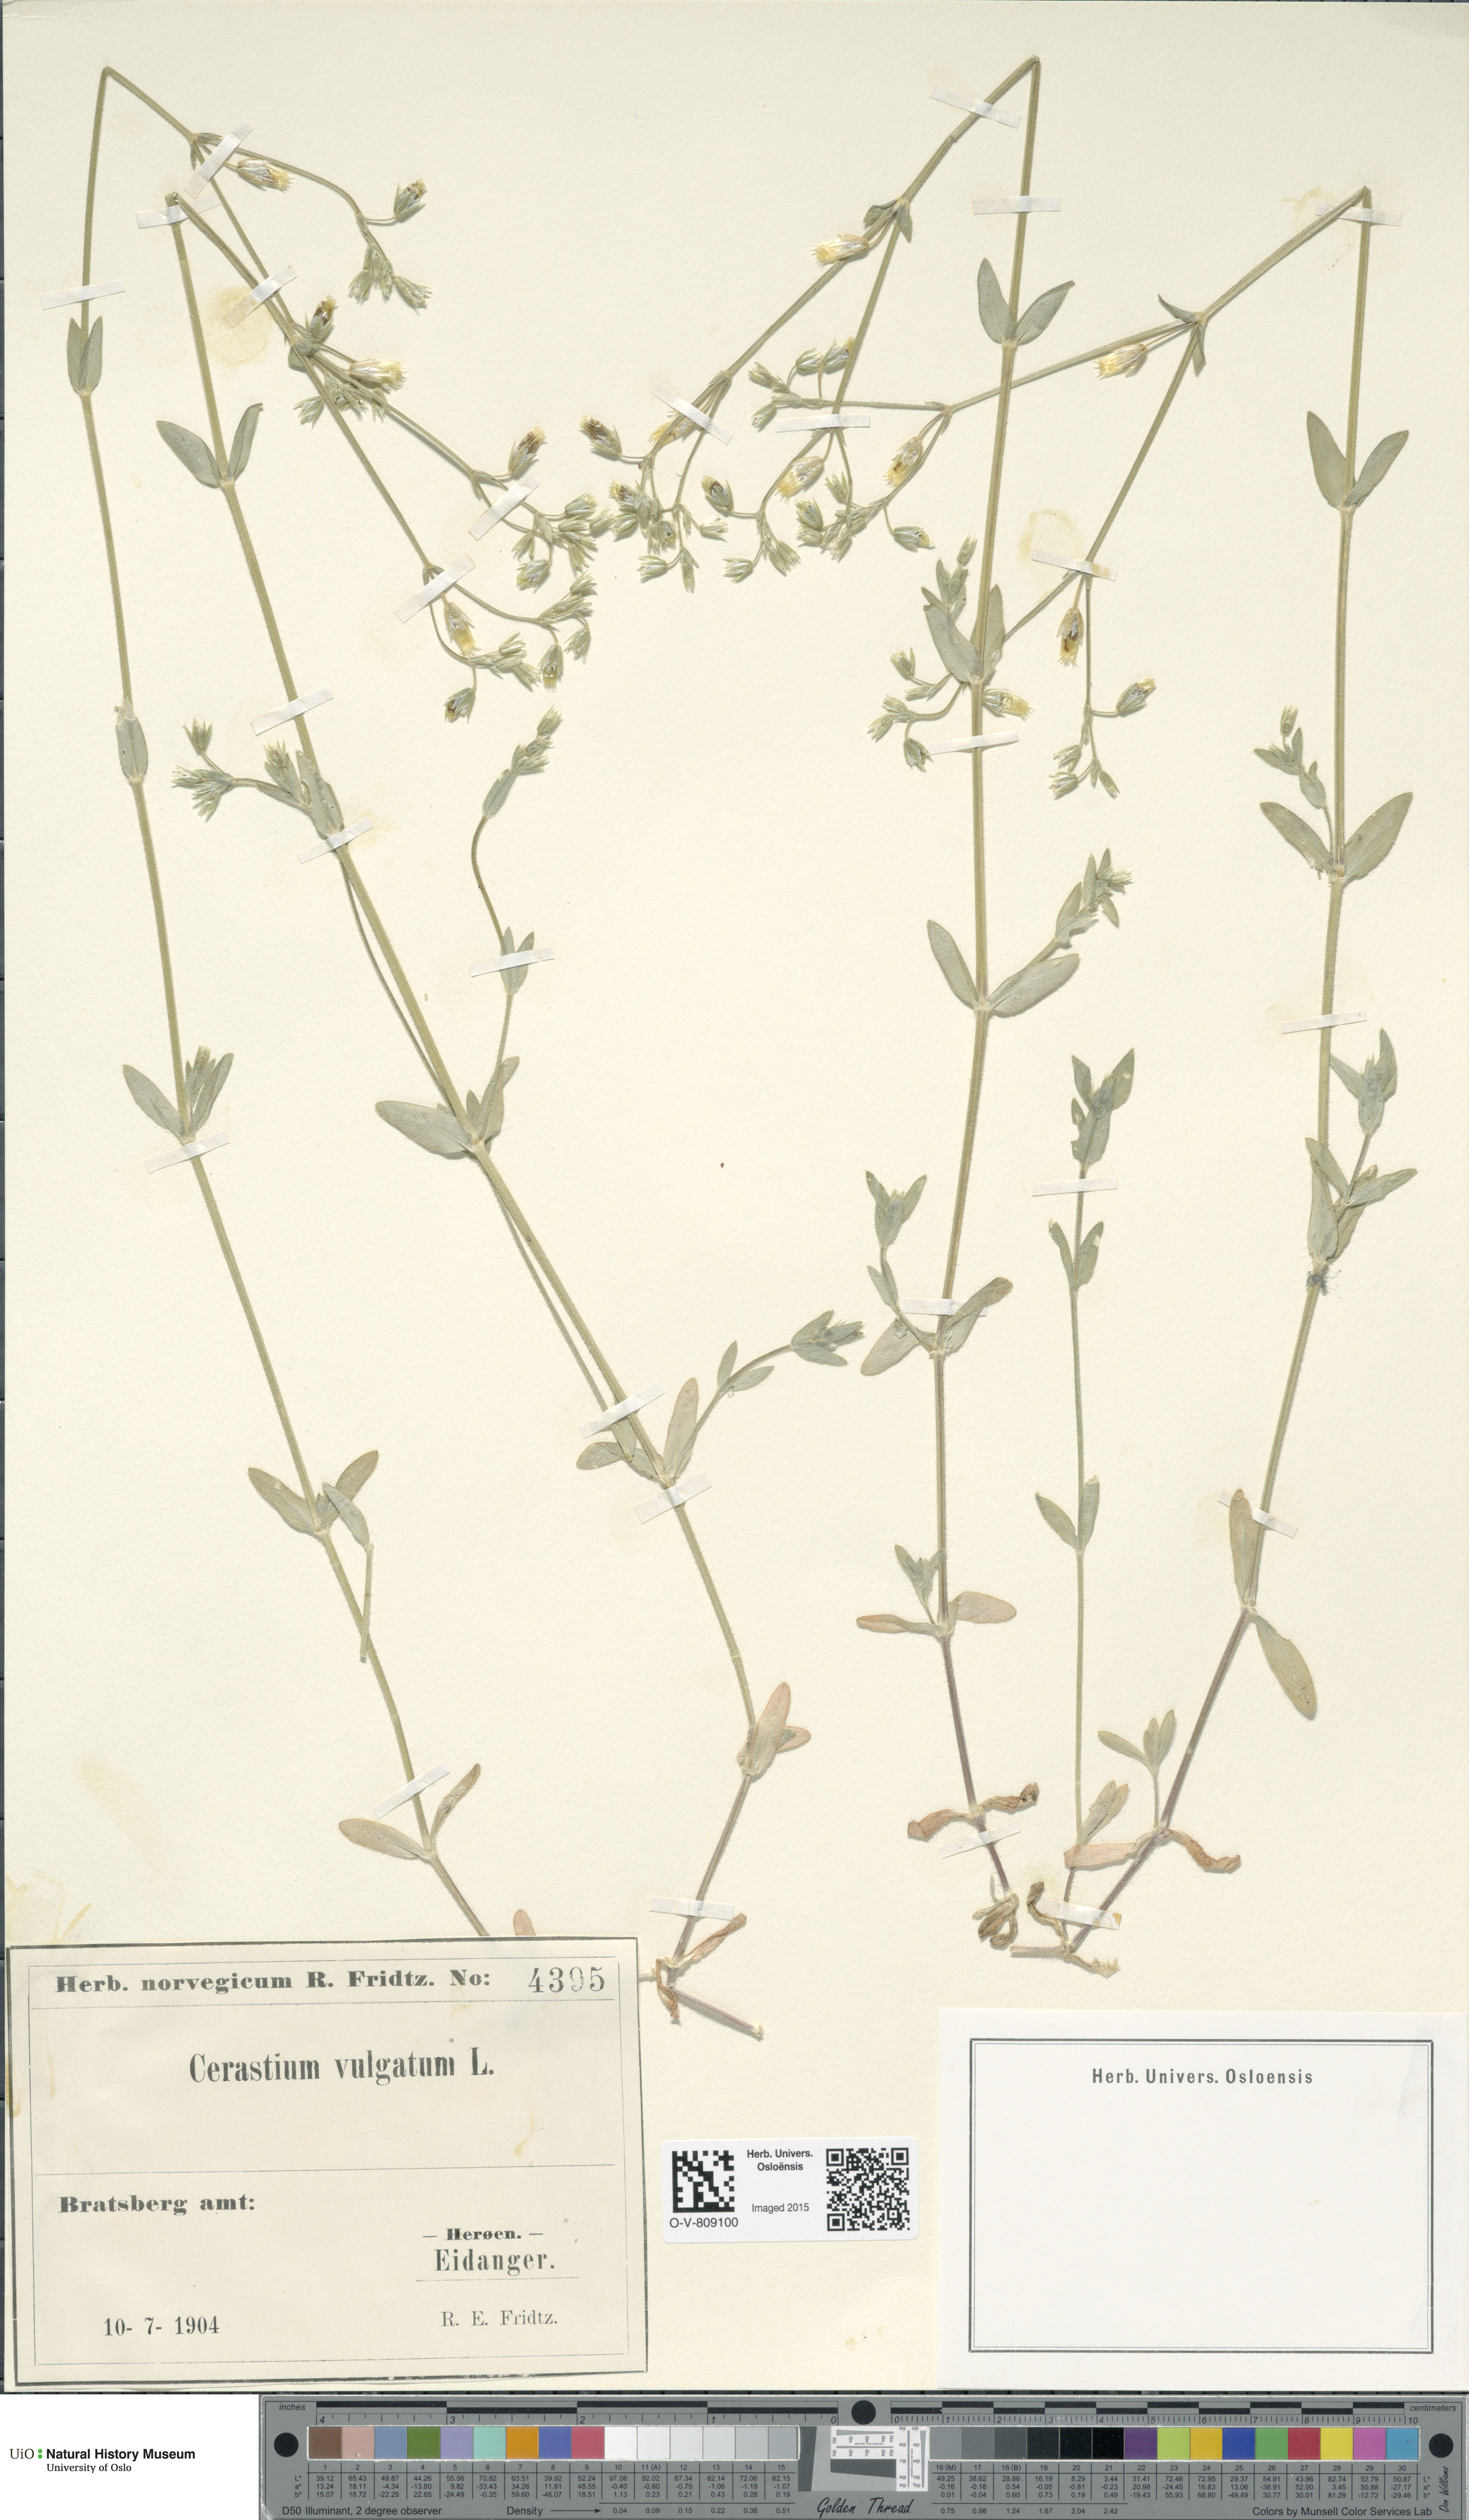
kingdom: Plantae
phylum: Tracheophyta
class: Magnoliopsida
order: Caryophyllales
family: Caryophyllaceae
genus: Cerastium
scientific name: Cerastium holosteoides
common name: Big chickweed
